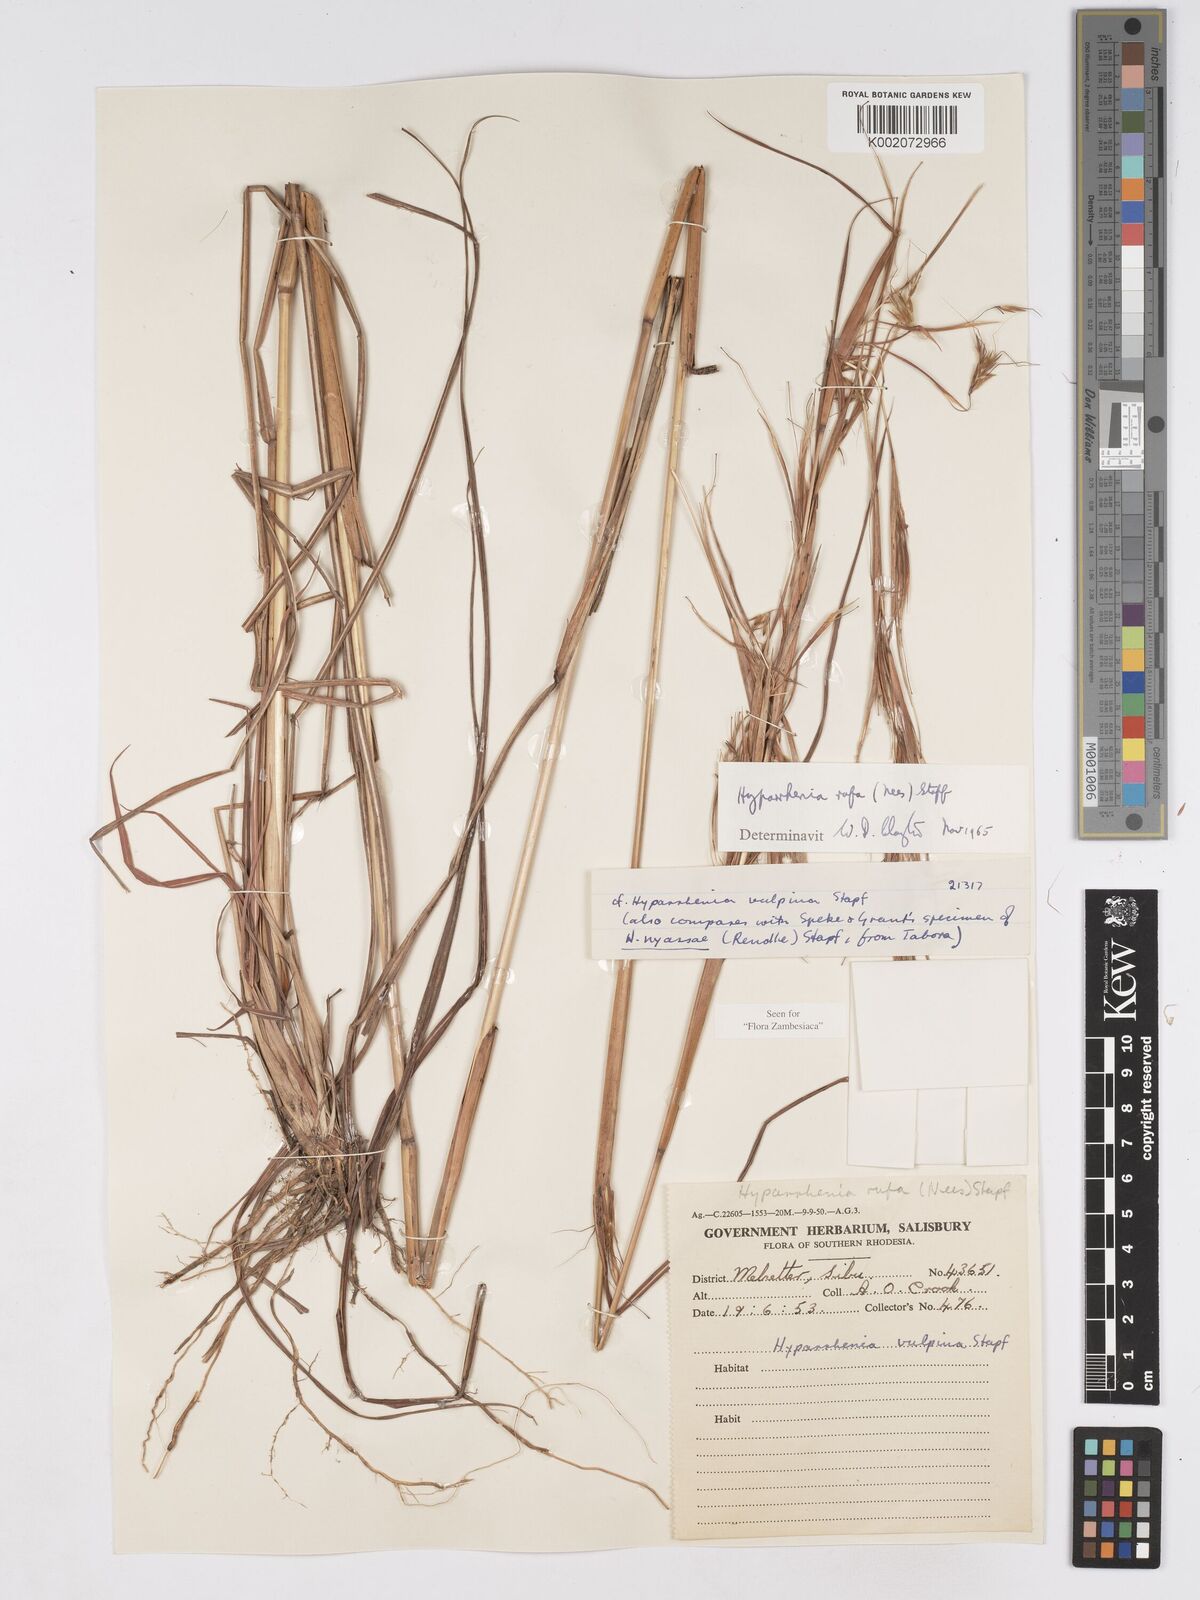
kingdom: Plantae
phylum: Tracheophyta
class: Liliopsida
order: Poales
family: Poaceae
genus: Hyparrhenia
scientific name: Hyparrhenia rufa
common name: Jaraguagrass
